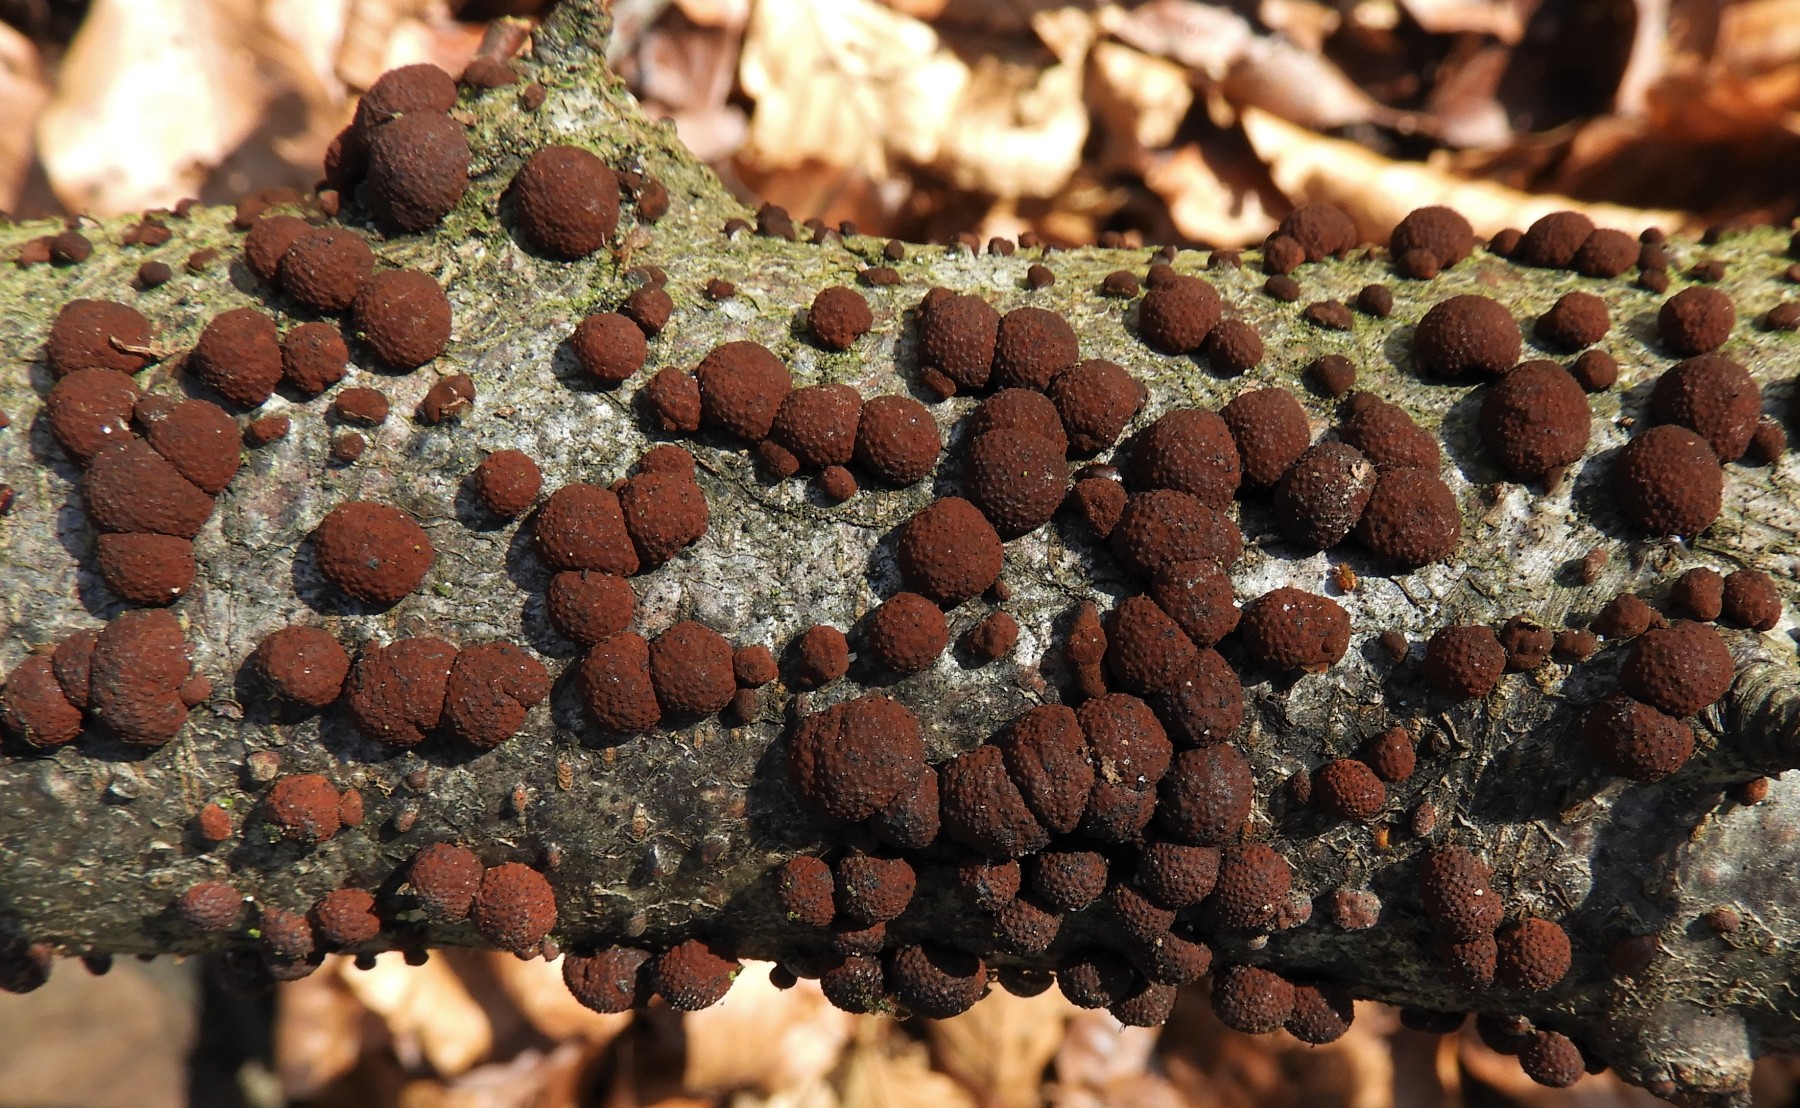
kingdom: Fungi
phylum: Ascomycota
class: Sordariomycetes
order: Xylariales
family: Hypoxylaceae
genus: Hypoxylon
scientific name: Hypoxylon fragiforme
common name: kuljordbær
